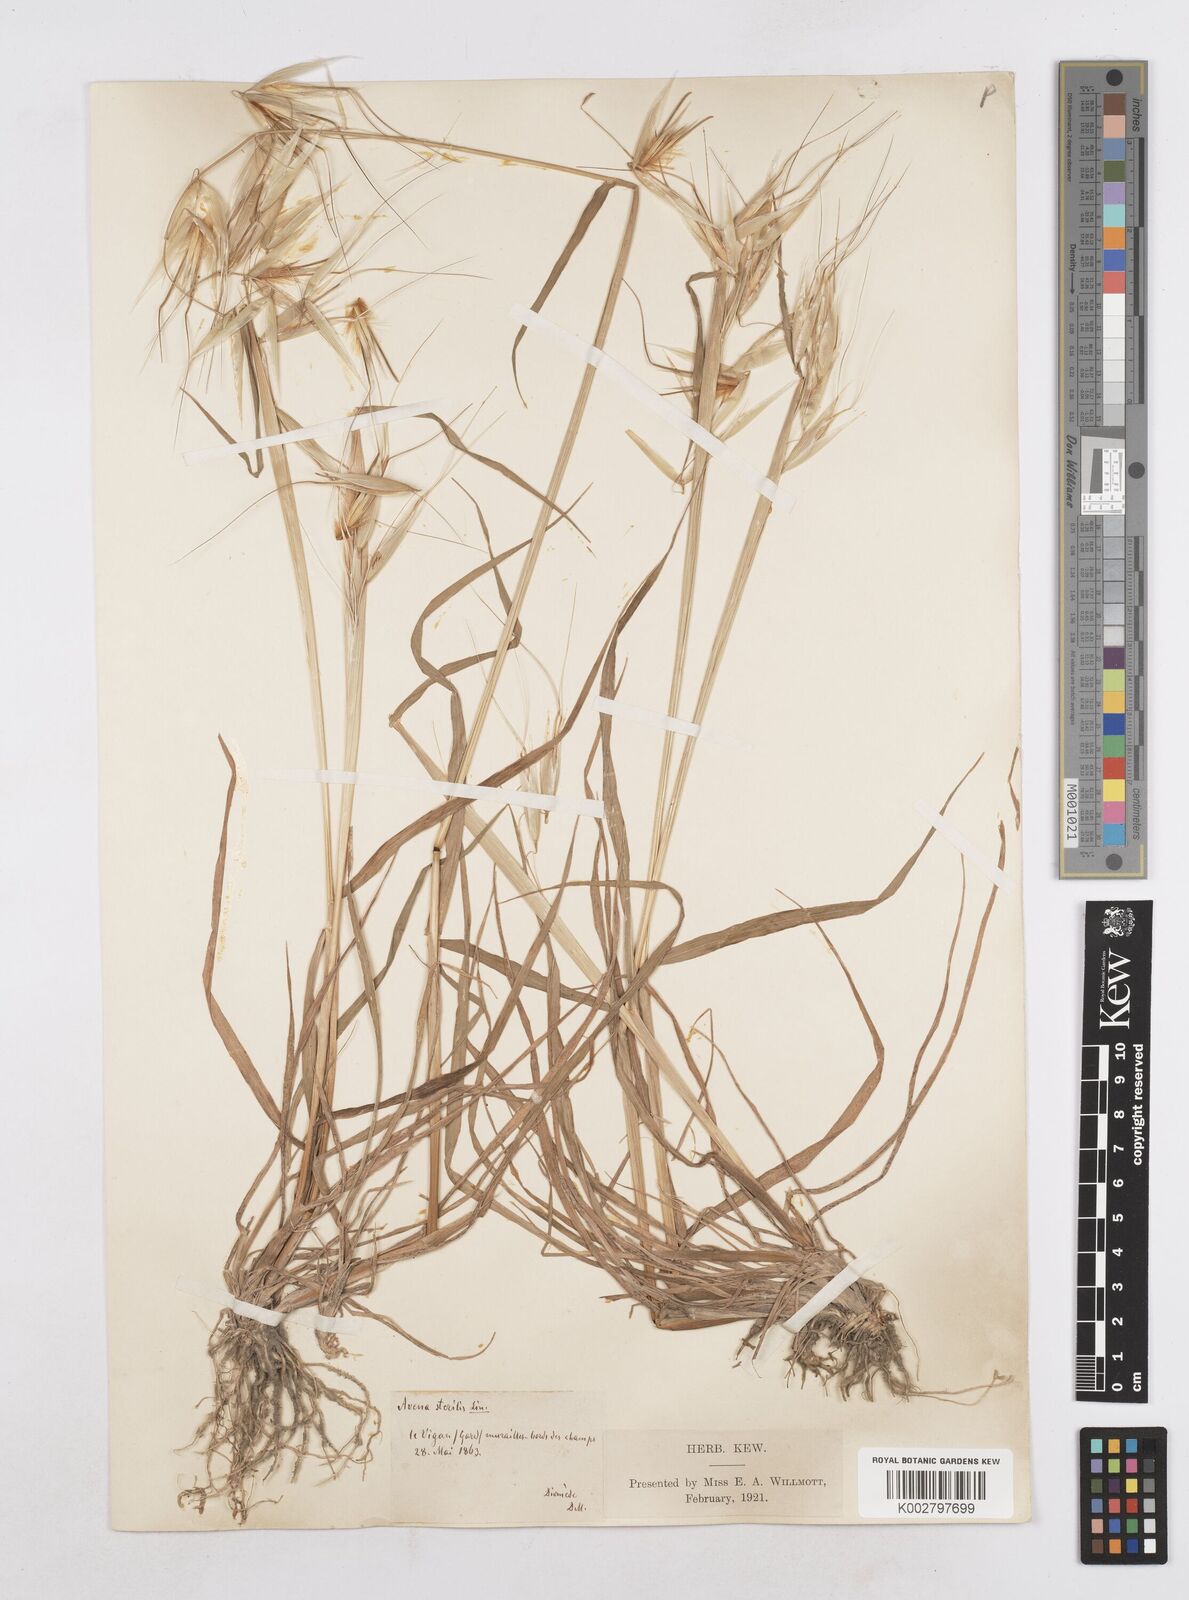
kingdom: Plantae
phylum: Tracheophyta
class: Liliopsida
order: Poales
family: Poaceae
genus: Avena
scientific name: Avena sterilis
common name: Animated oat
